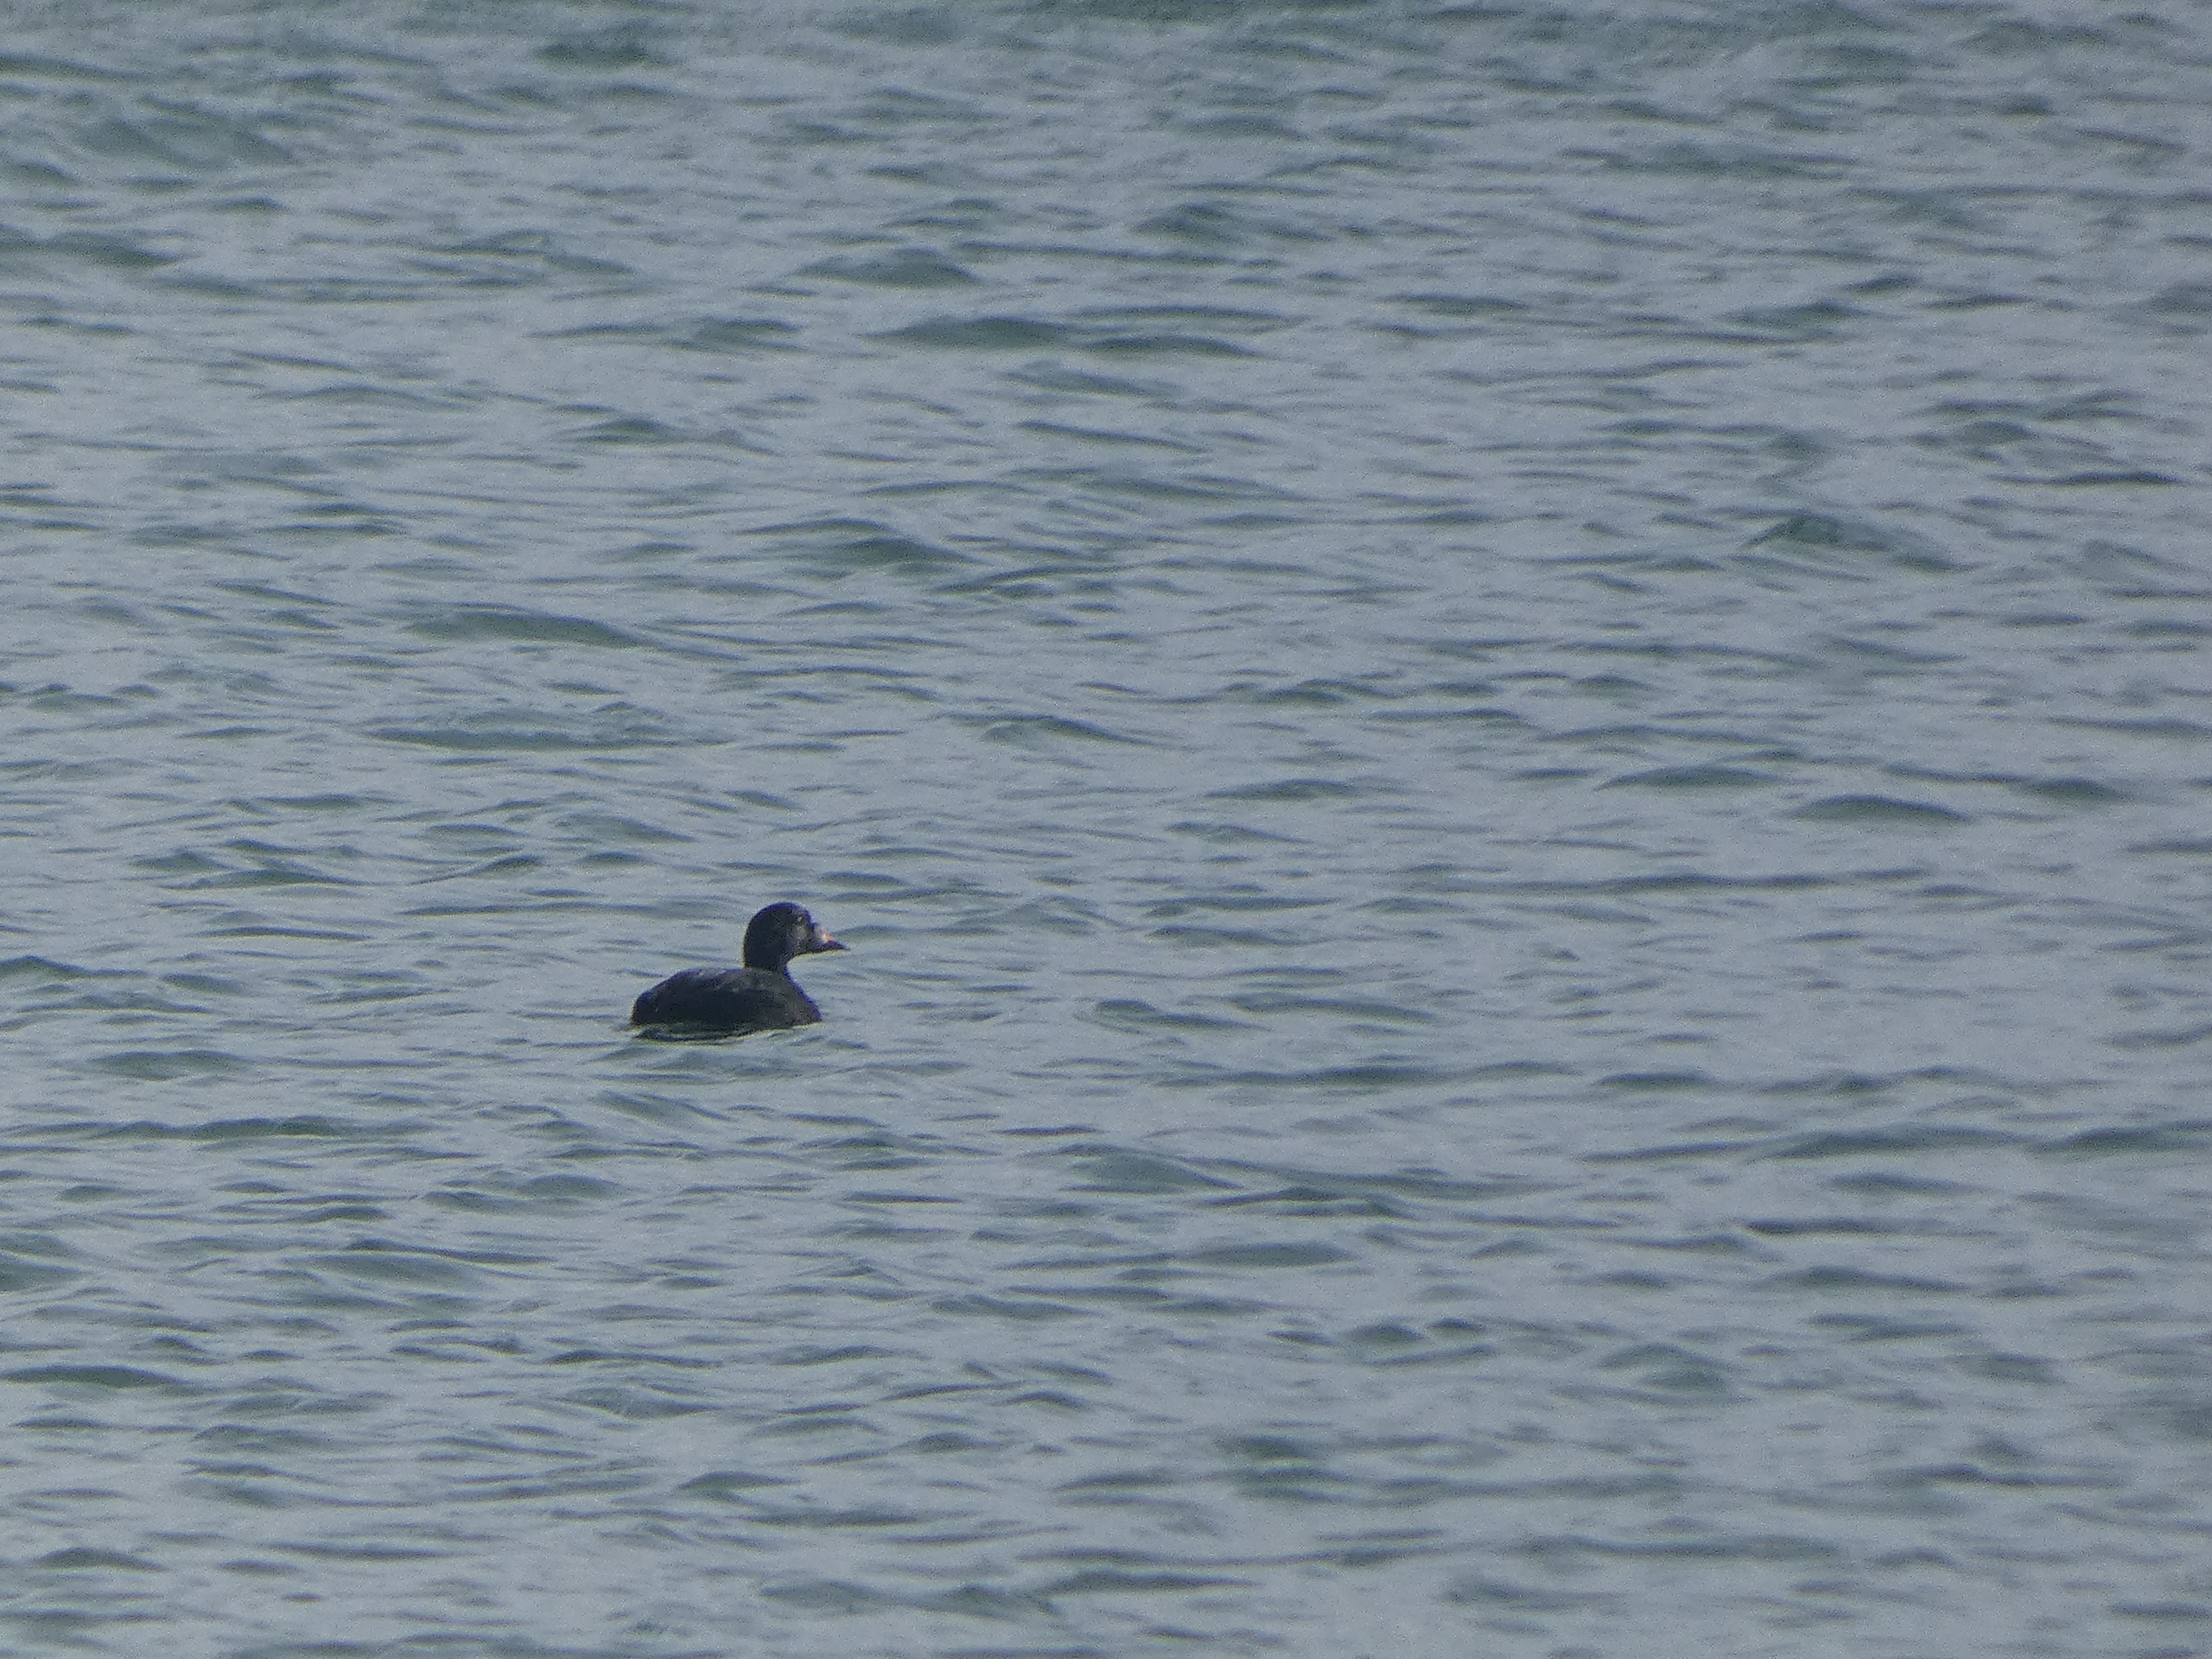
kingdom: Animalia
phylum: Chordata
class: Aves
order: Anseriformes
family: Anatidae
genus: Melanitta
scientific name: Melanitta nigra
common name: Sortand
